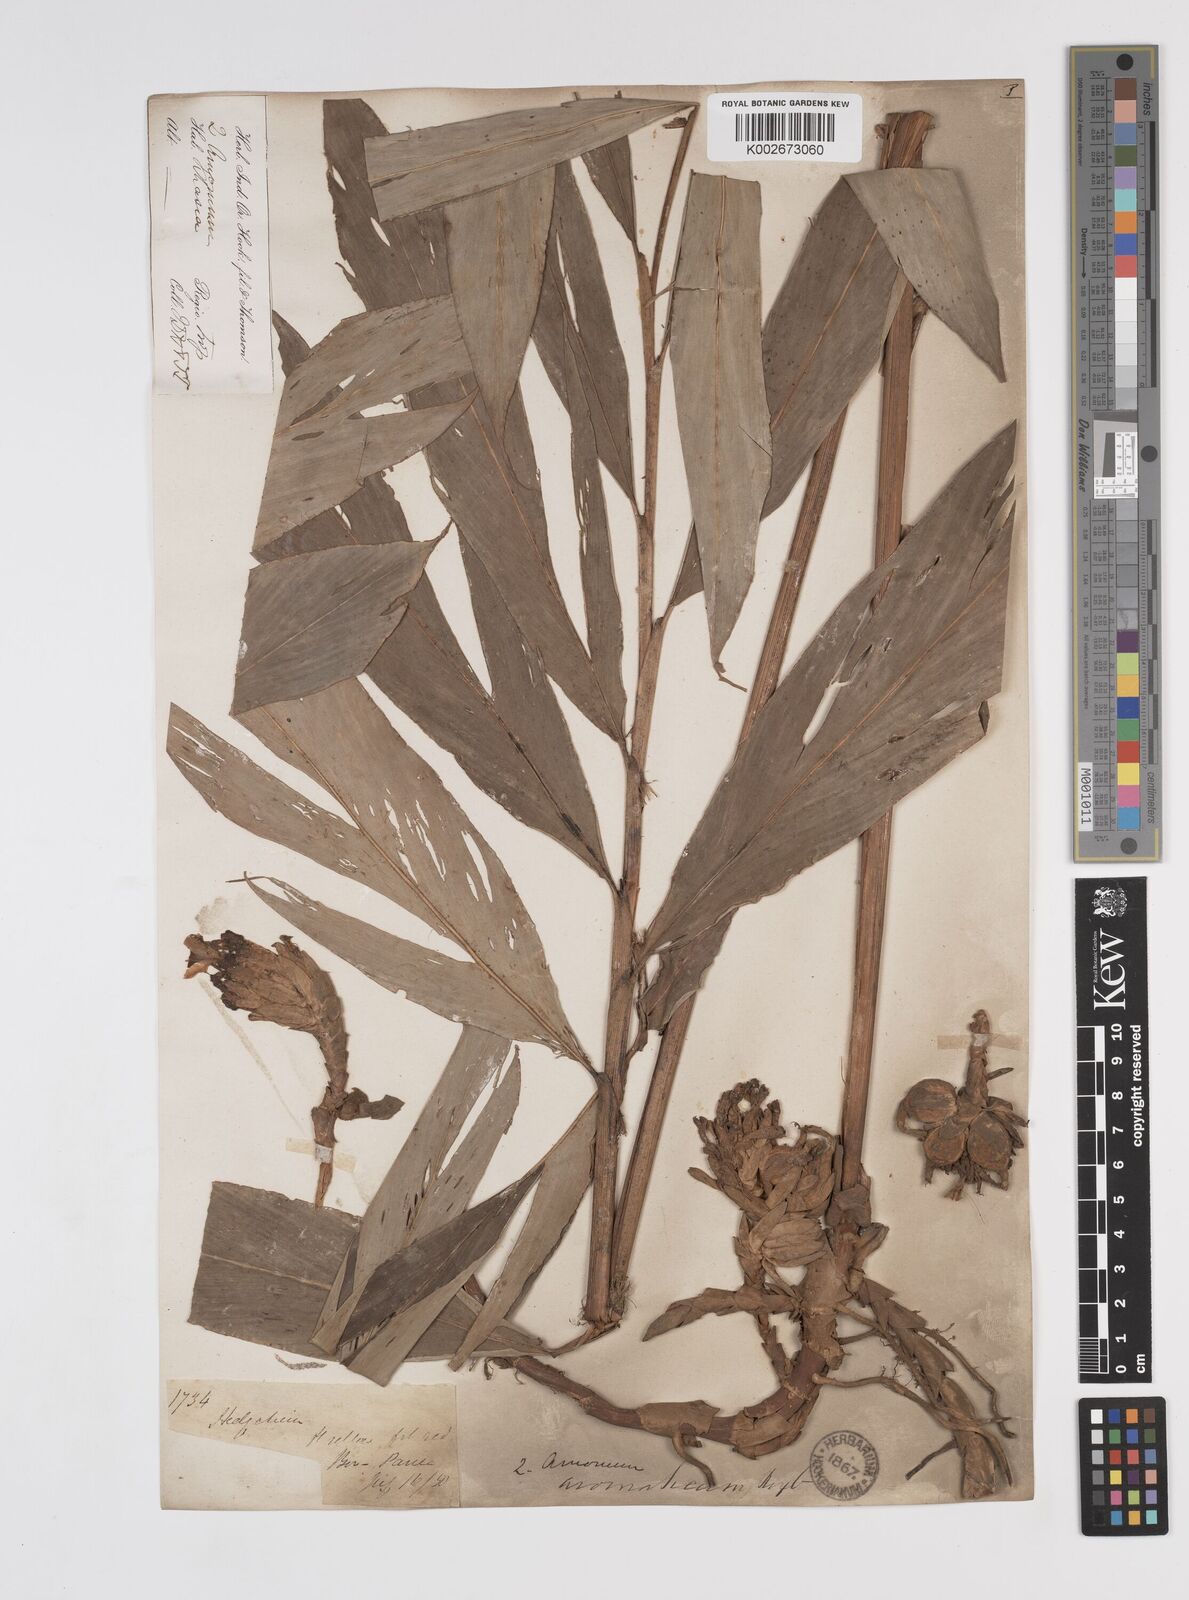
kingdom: Plantae
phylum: Tracheophyta
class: Liliopsida
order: Zingiberales
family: Zingiberaceae
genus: Wurfbainia
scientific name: Wurfbainia aromatica
